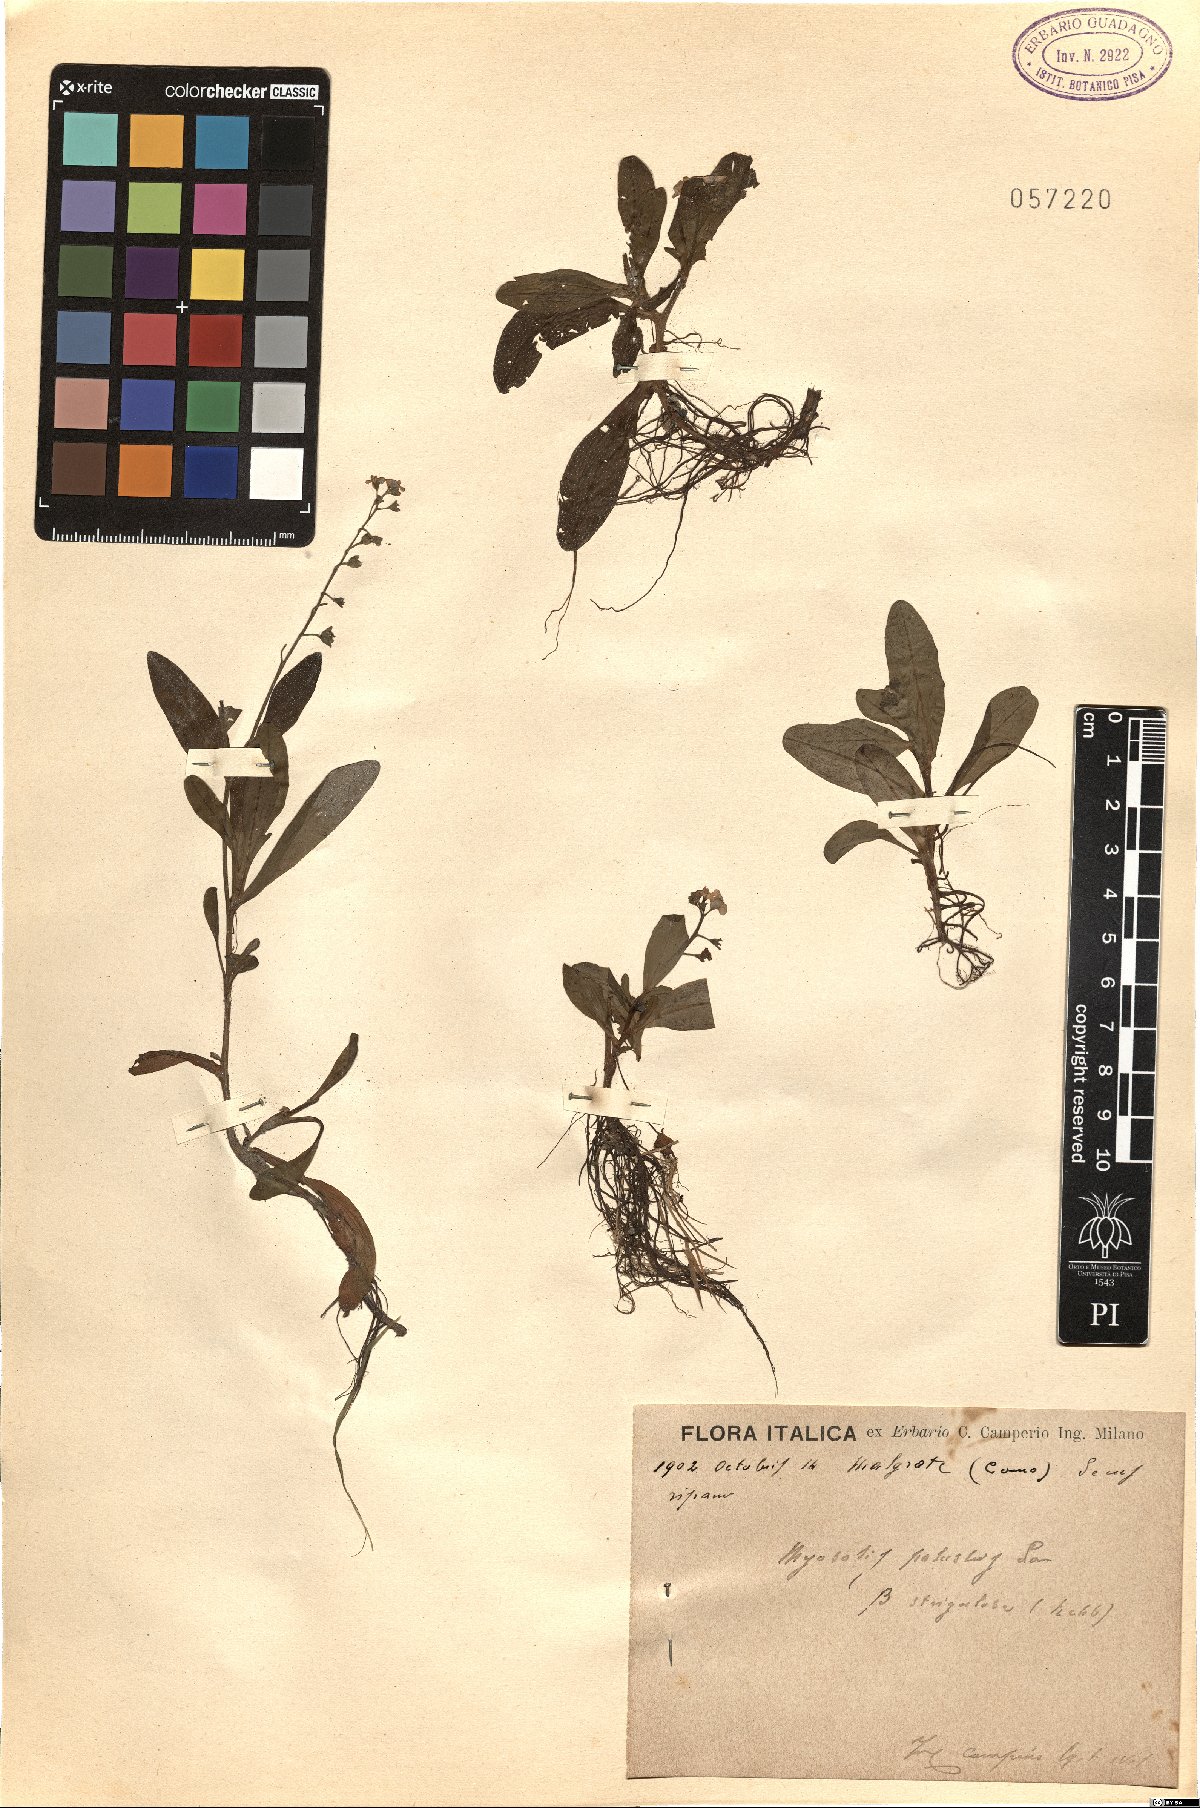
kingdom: Plantae
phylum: Tracheophyta
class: Magnoliopsida
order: Boraginales
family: Boraginaceae
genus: Myosotis
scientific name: Myosotis nemorosa
